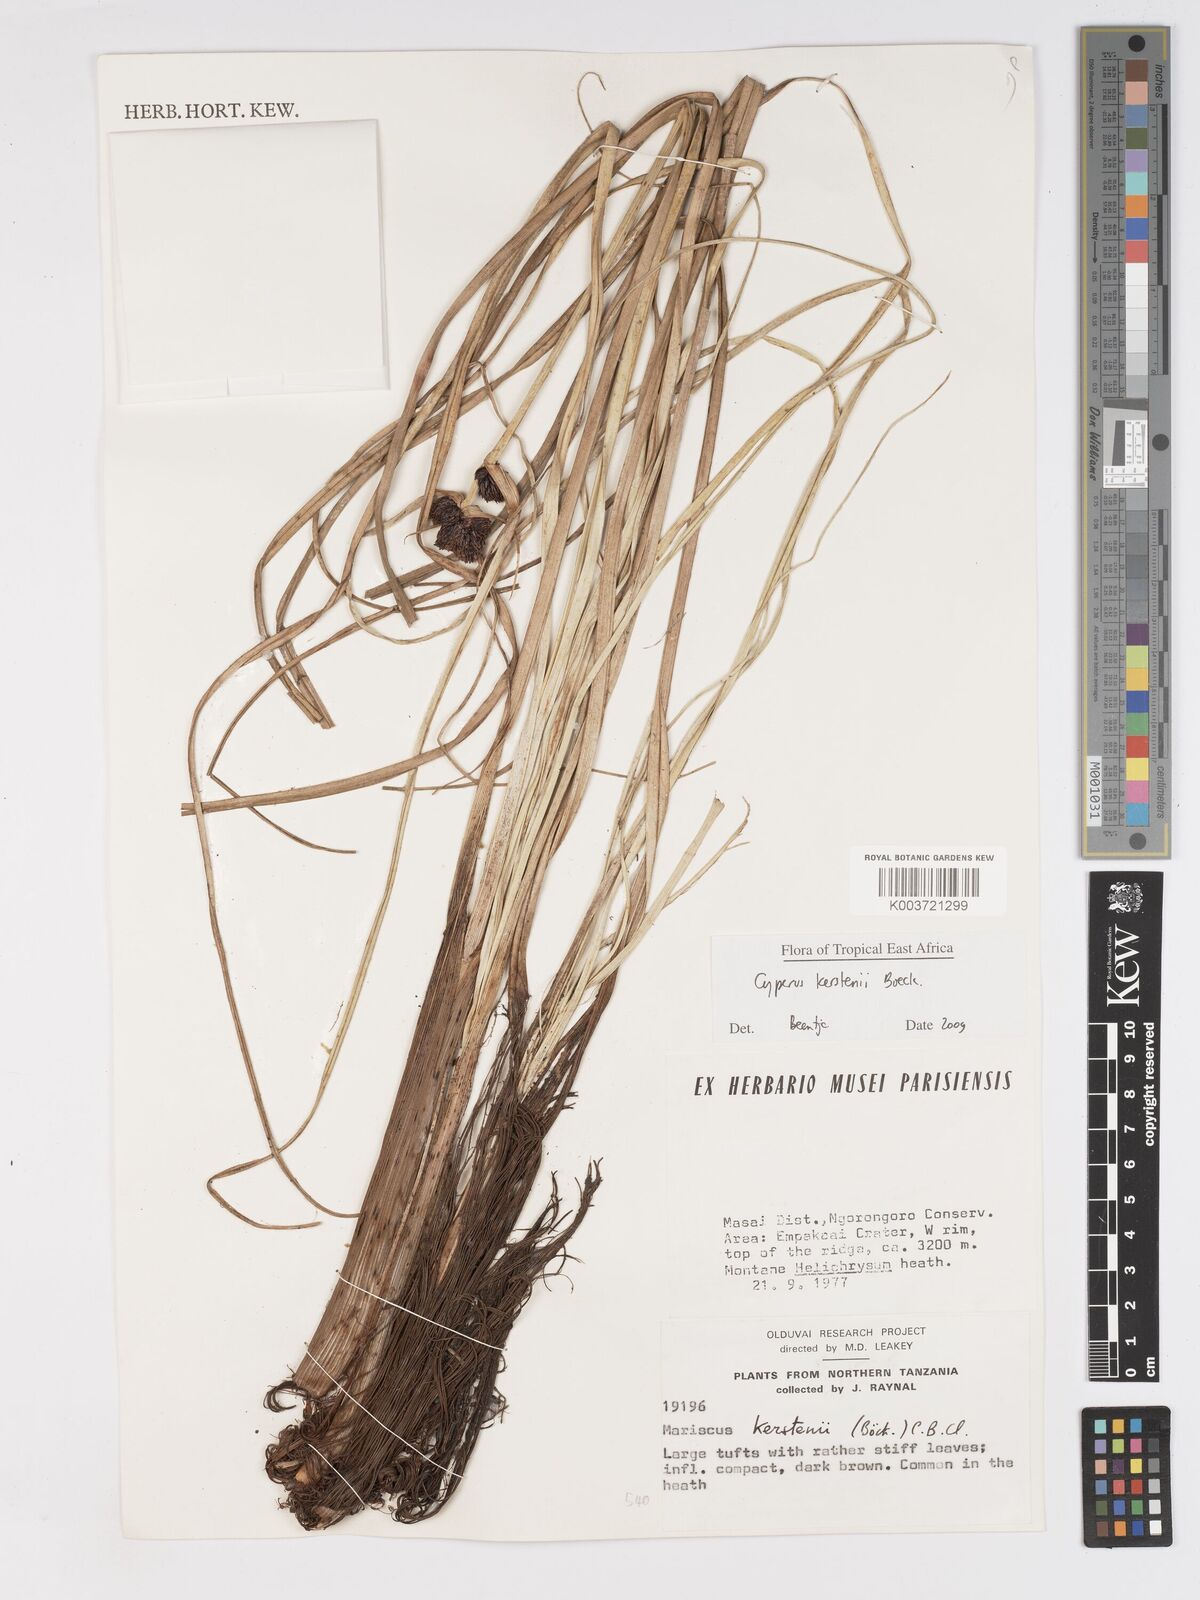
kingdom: Plantae
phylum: Tracheophyta
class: Liliopsida
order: Poales
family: Cyperaceae
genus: Cyperus
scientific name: Cyperus kerstenii
